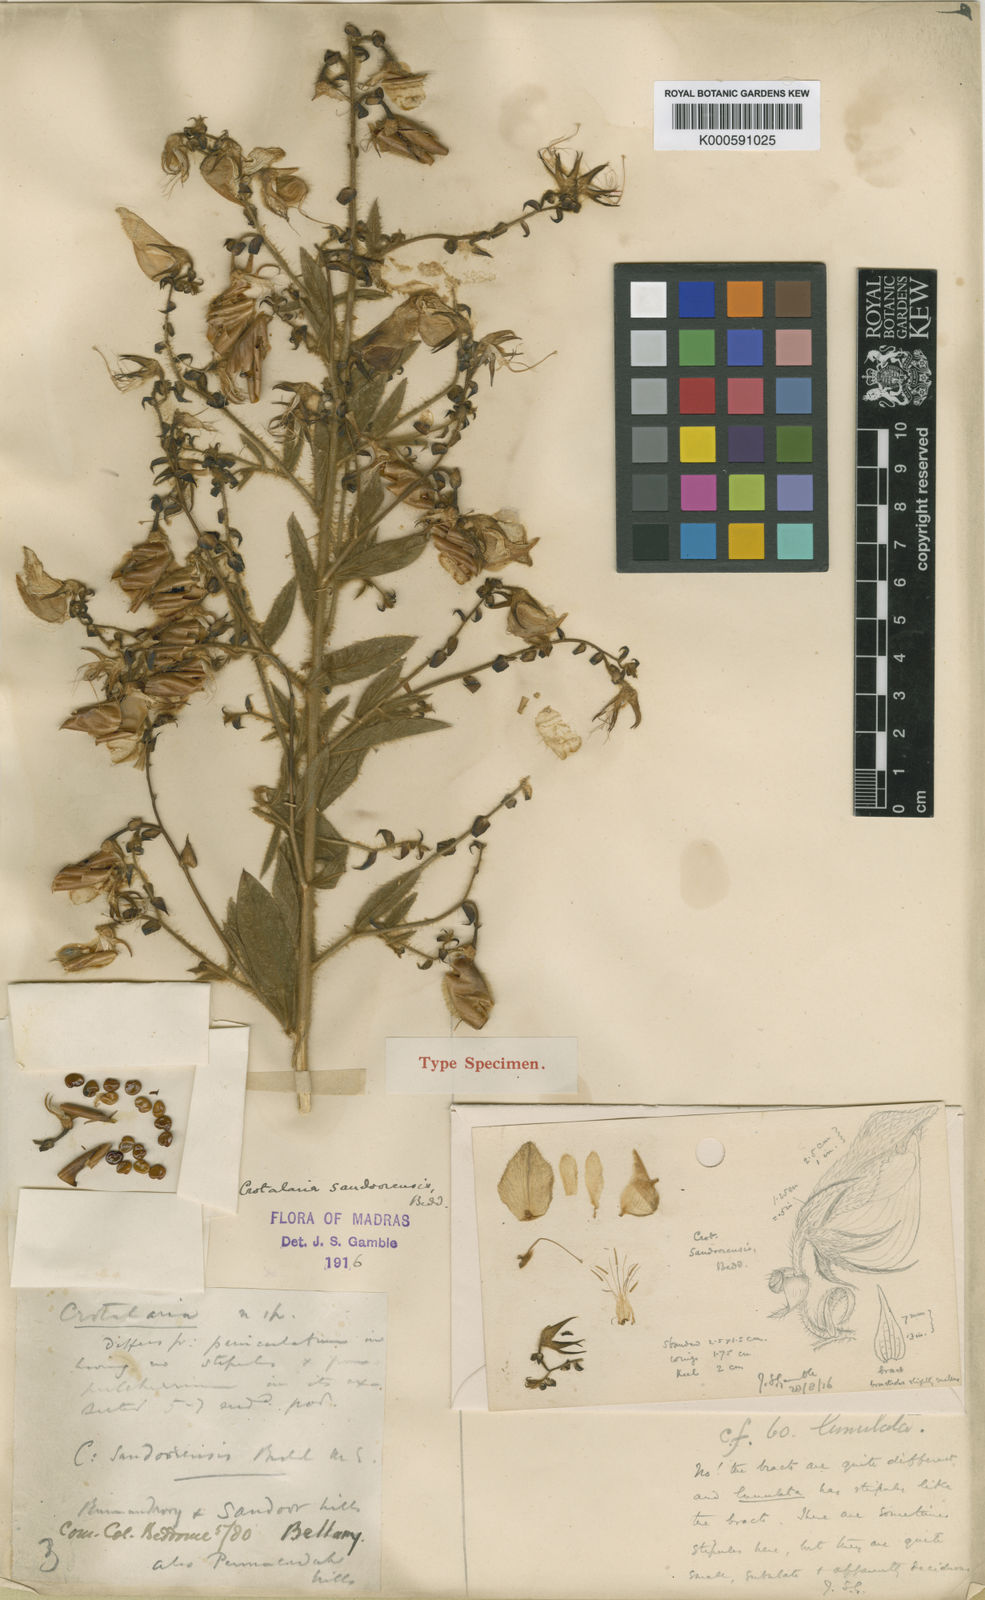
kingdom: Plantae
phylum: Tracheophyta
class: Magnoliopsida
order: Fabales
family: Fabaceae
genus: Crotalaria
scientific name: Crotalaria sandoorensis
